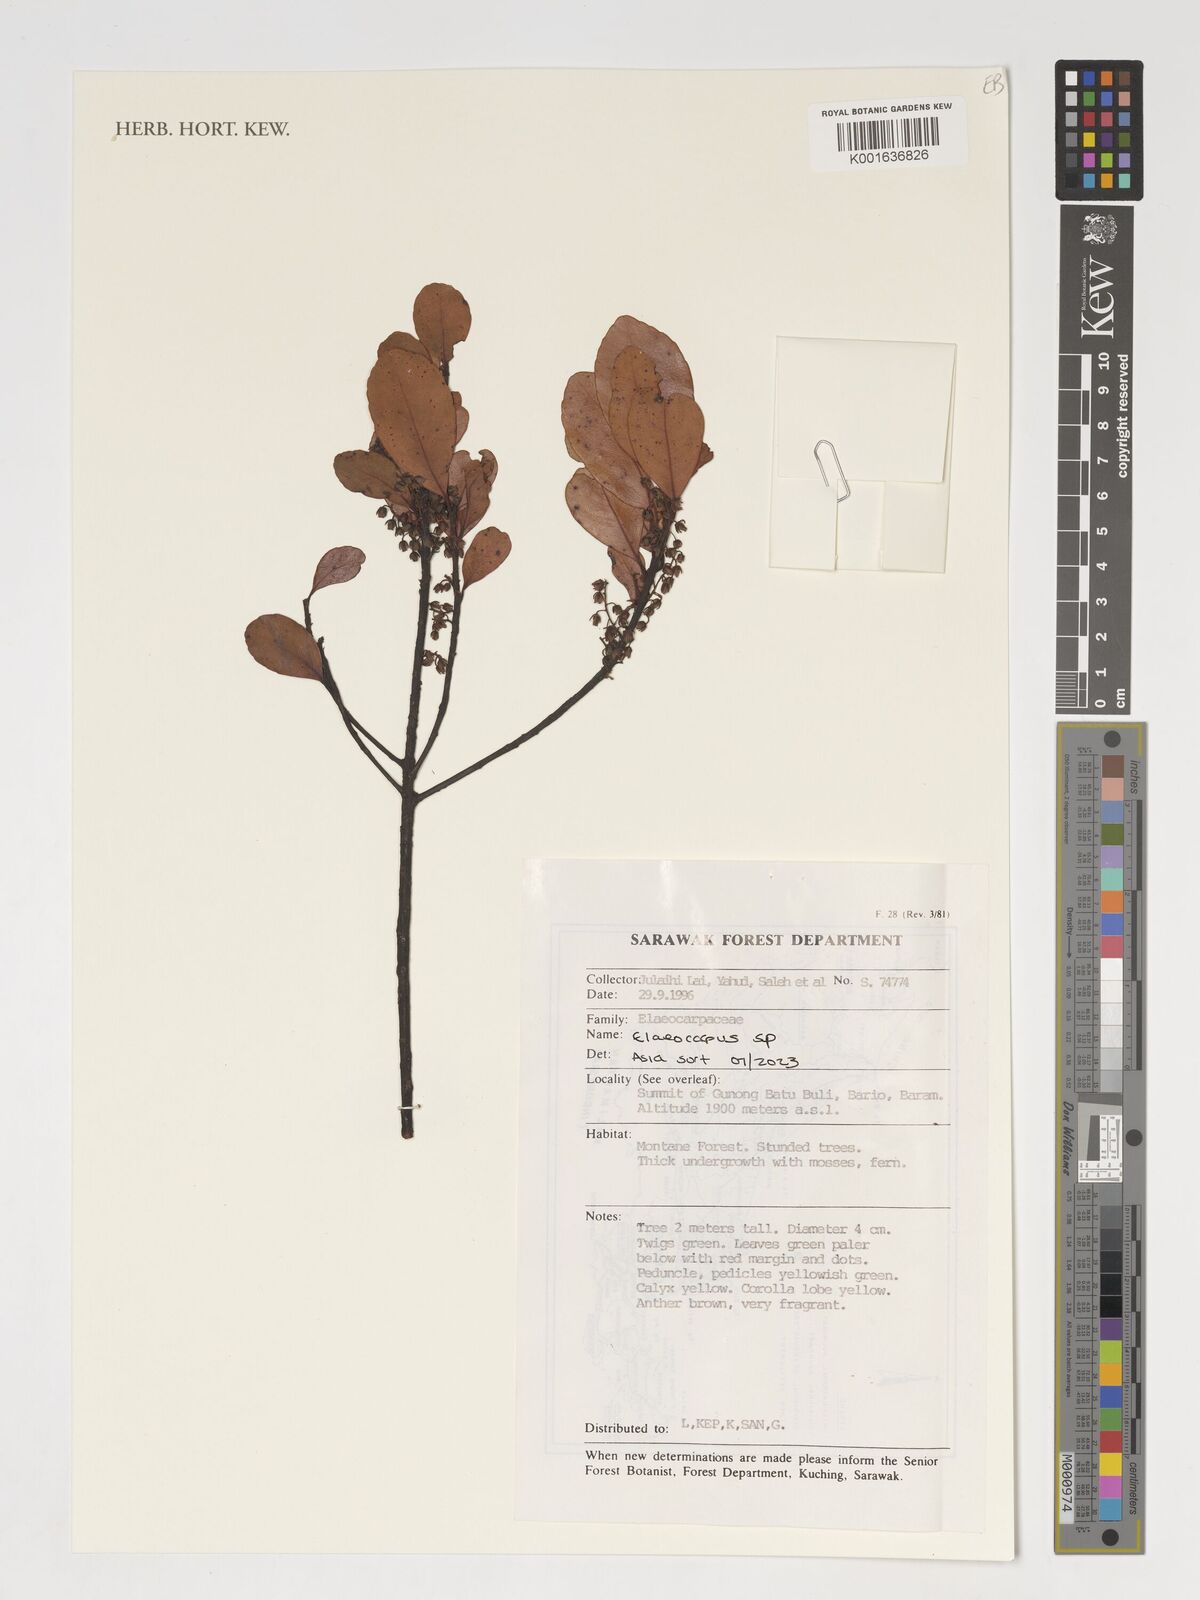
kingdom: Plantae
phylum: Tracheophyta
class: Magnoliopsida
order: Oxalidales
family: Elaeocarpaceae
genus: Elaeocarpus
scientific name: Elaeocarpus
